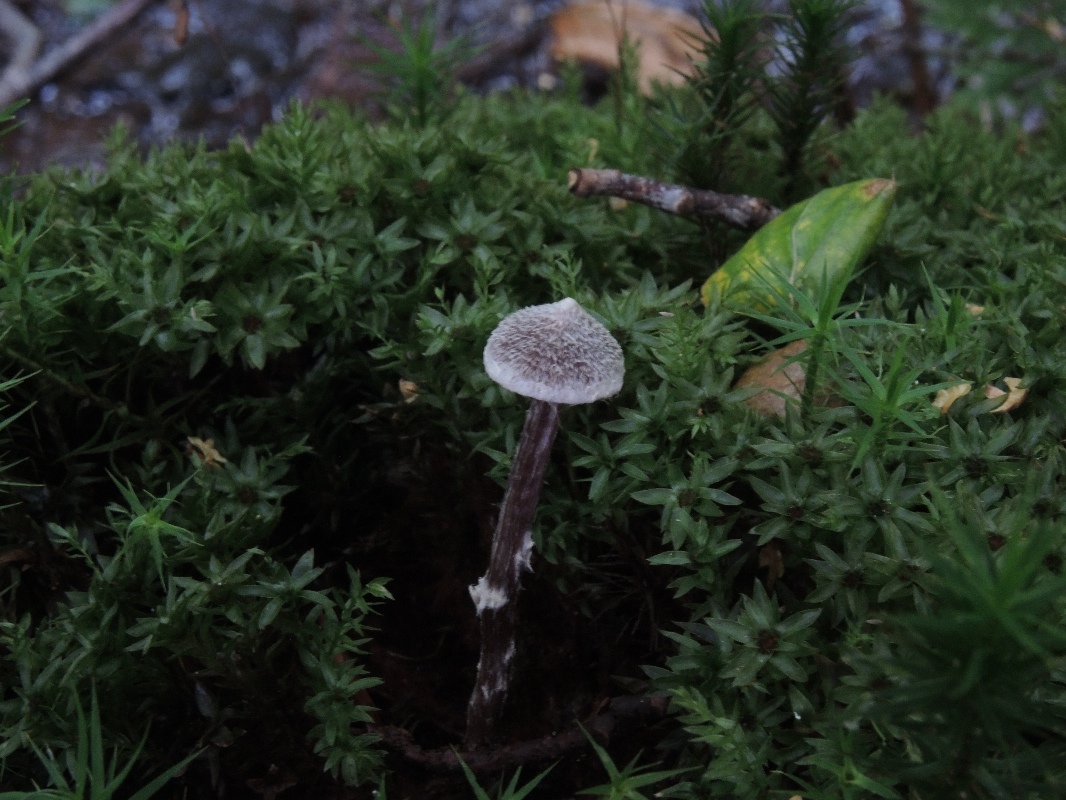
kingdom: Fungi
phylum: Basidiomycota
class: Agaricomycetes
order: Agaricales
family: Cortinariaceae
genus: Cortinarius
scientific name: Cortinarius flexipes
